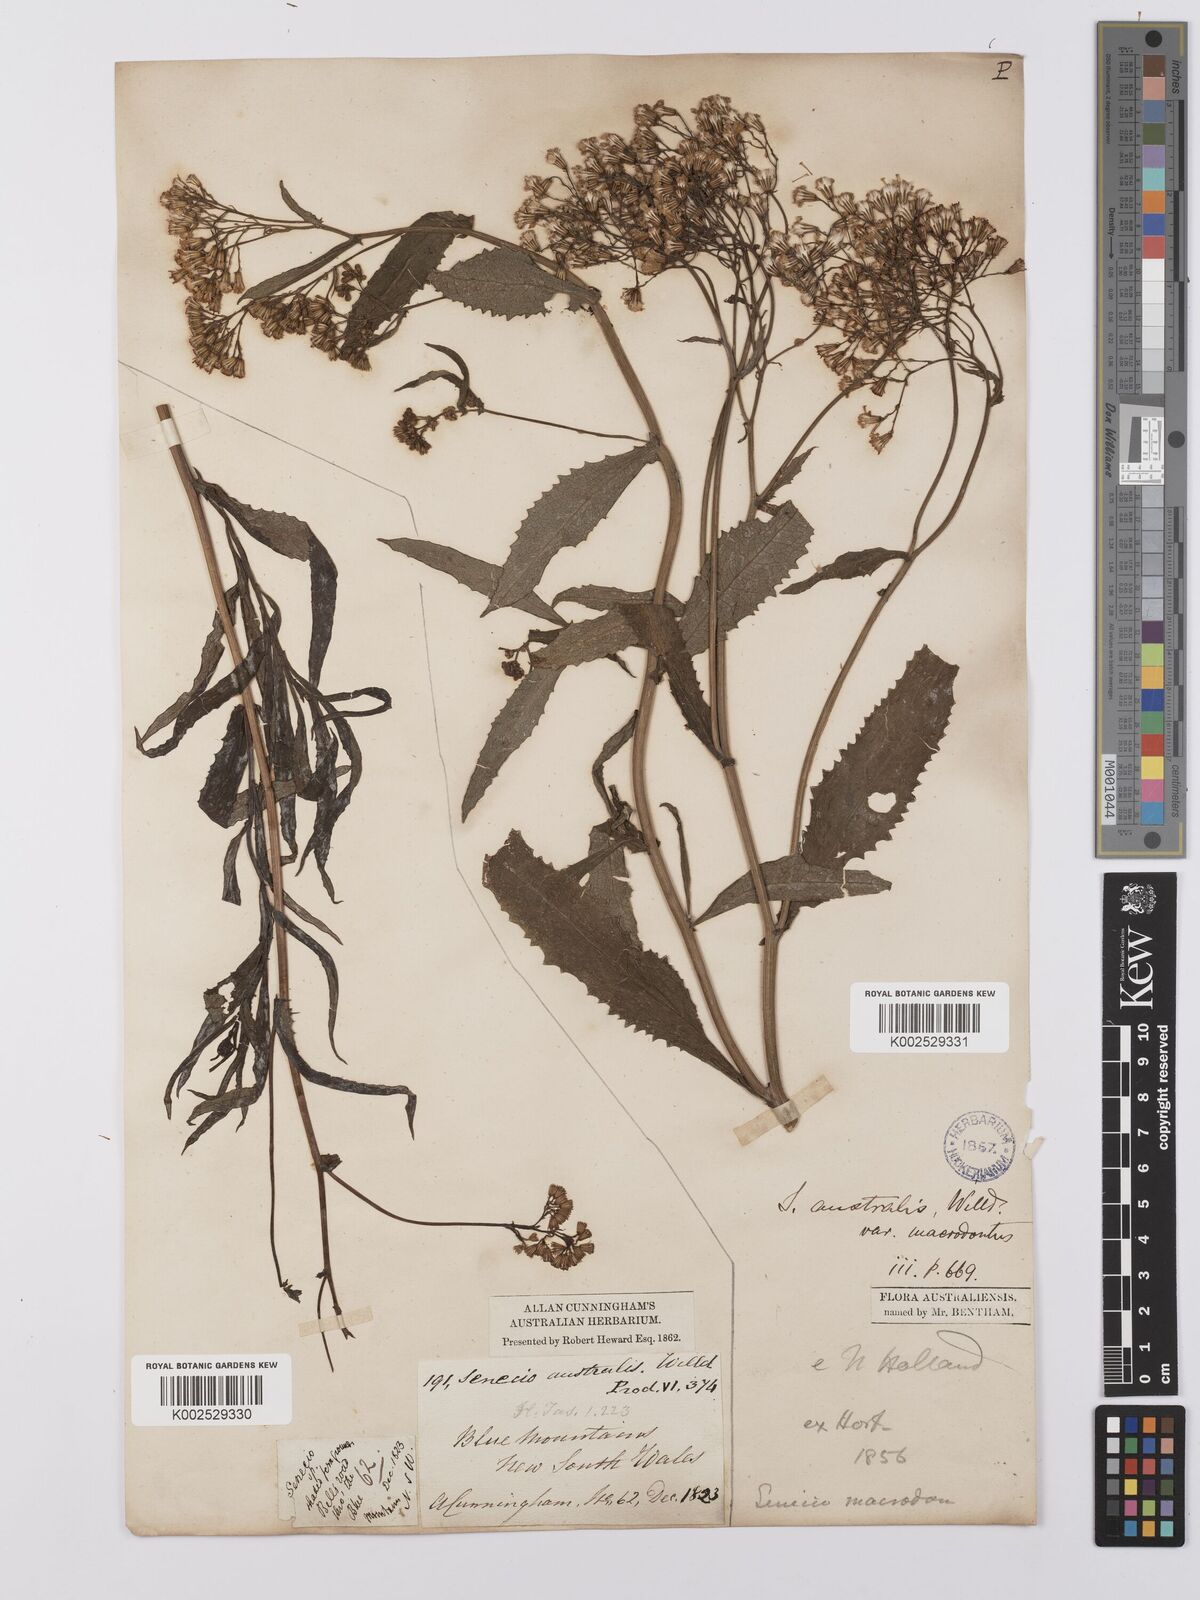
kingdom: Plantae
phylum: Tracheophyta
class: Magnoliopsida
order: Asterales
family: Asteraceae
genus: Senecio
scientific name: Senecio linearifolius
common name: Fireweed groundsel
